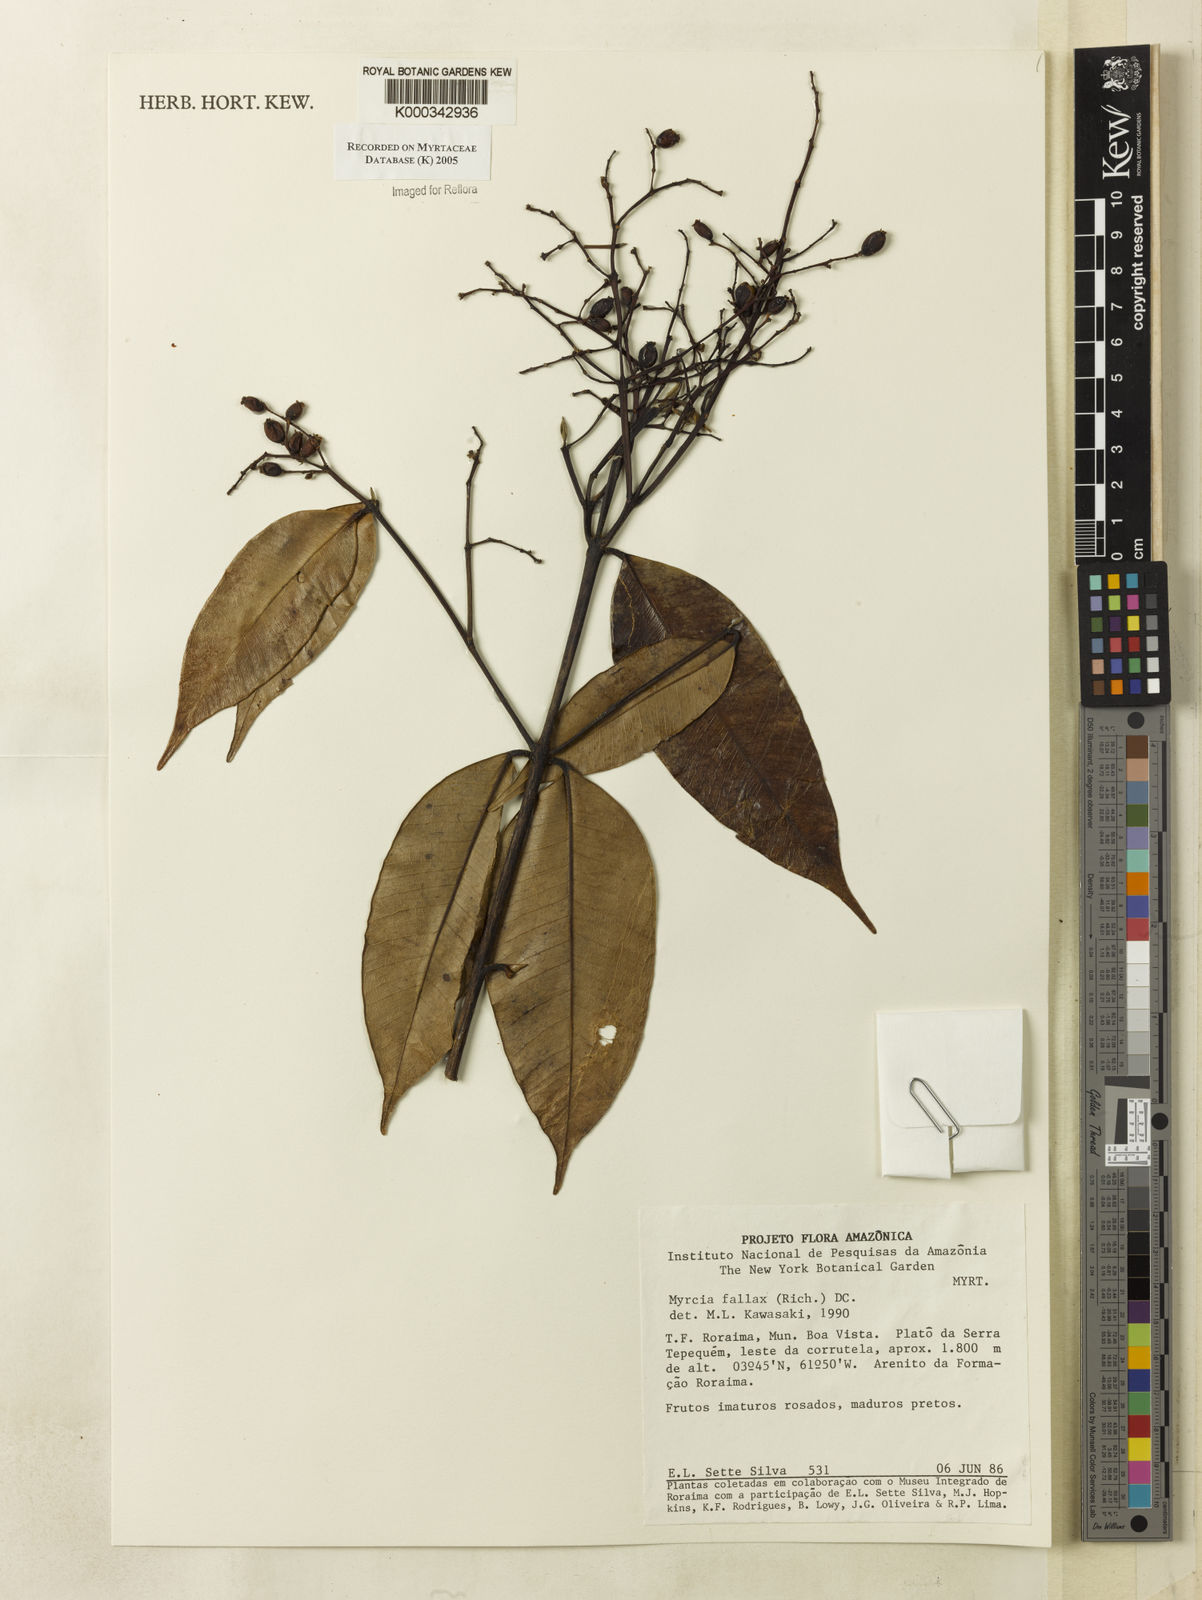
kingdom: Plantae
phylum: Tracheophyta
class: Magnoliopsida
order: Myrtales
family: Myrtaceae
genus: Myrcia
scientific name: Myrcia splendens
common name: Surinam cherry
